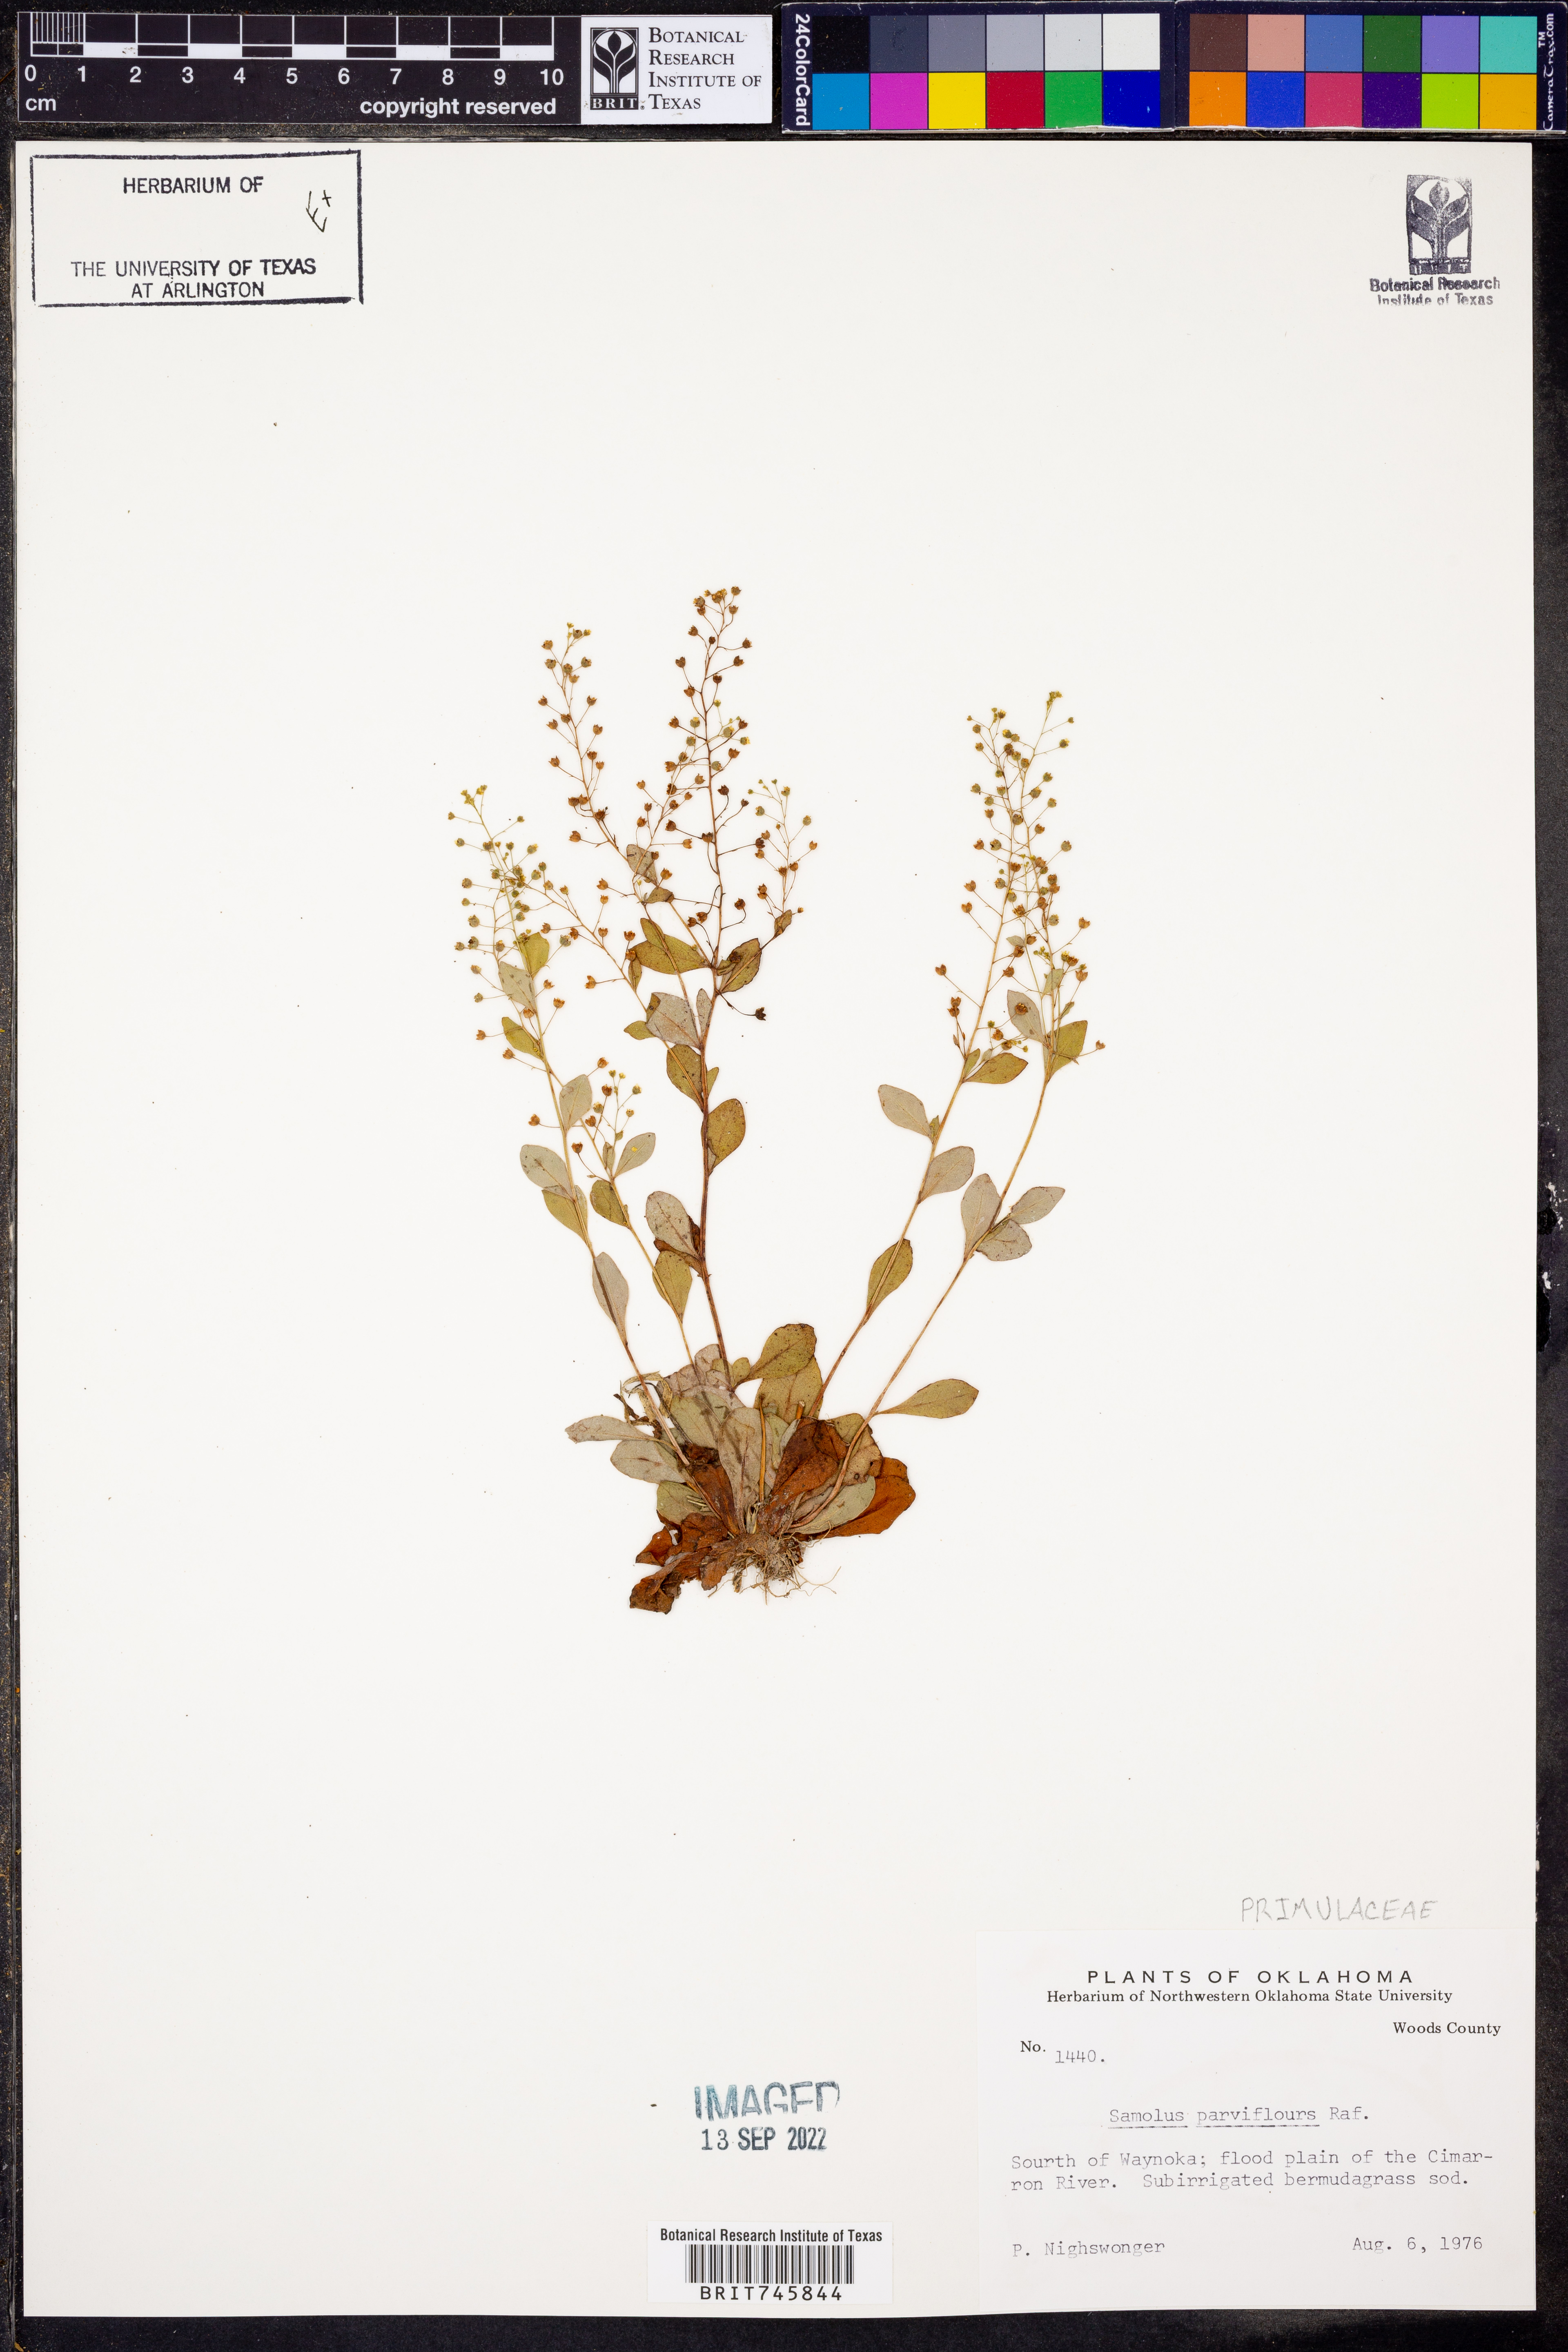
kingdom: Plantae
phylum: Tracheophyta
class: Magnoliopsida
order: Ericales
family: Primulaceae
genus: Samolus
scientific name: Samolus parviflorus
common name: False water pimpernel
